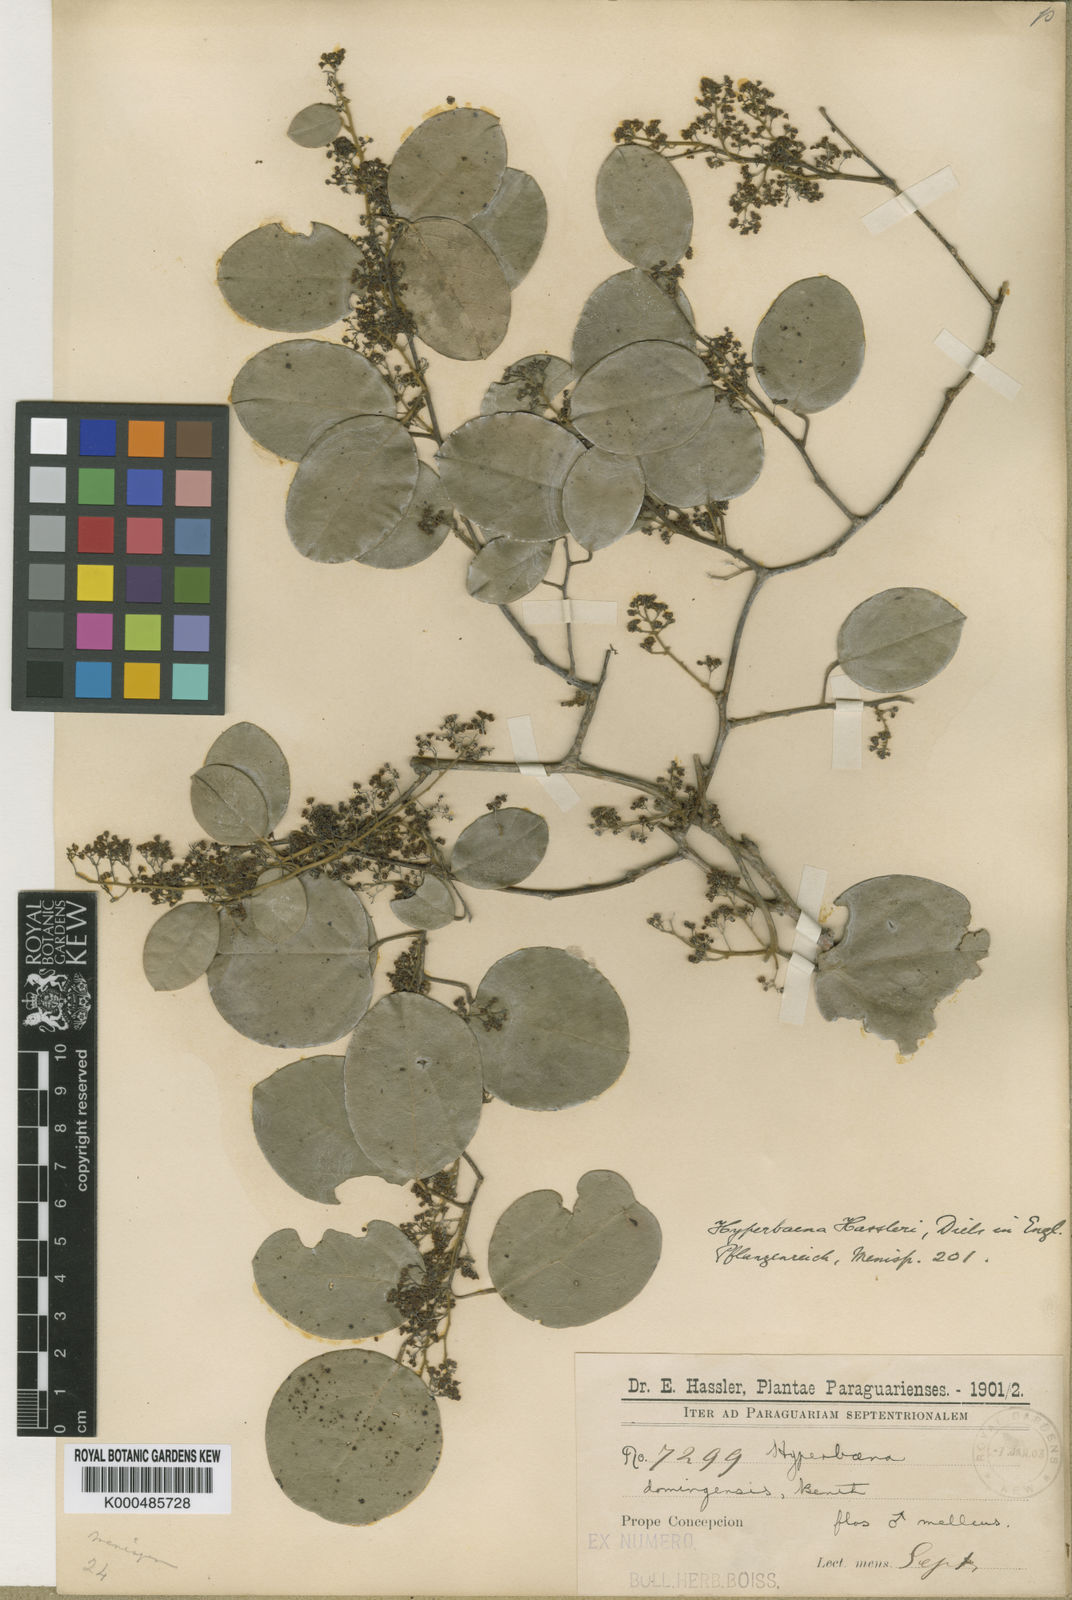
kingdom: Plantae
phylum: Tracheophyta
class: Magnoliopsida
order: Ranunculales
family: Menispermaceae
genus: Hyperbaena
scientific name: Hyperbaena hassleri
